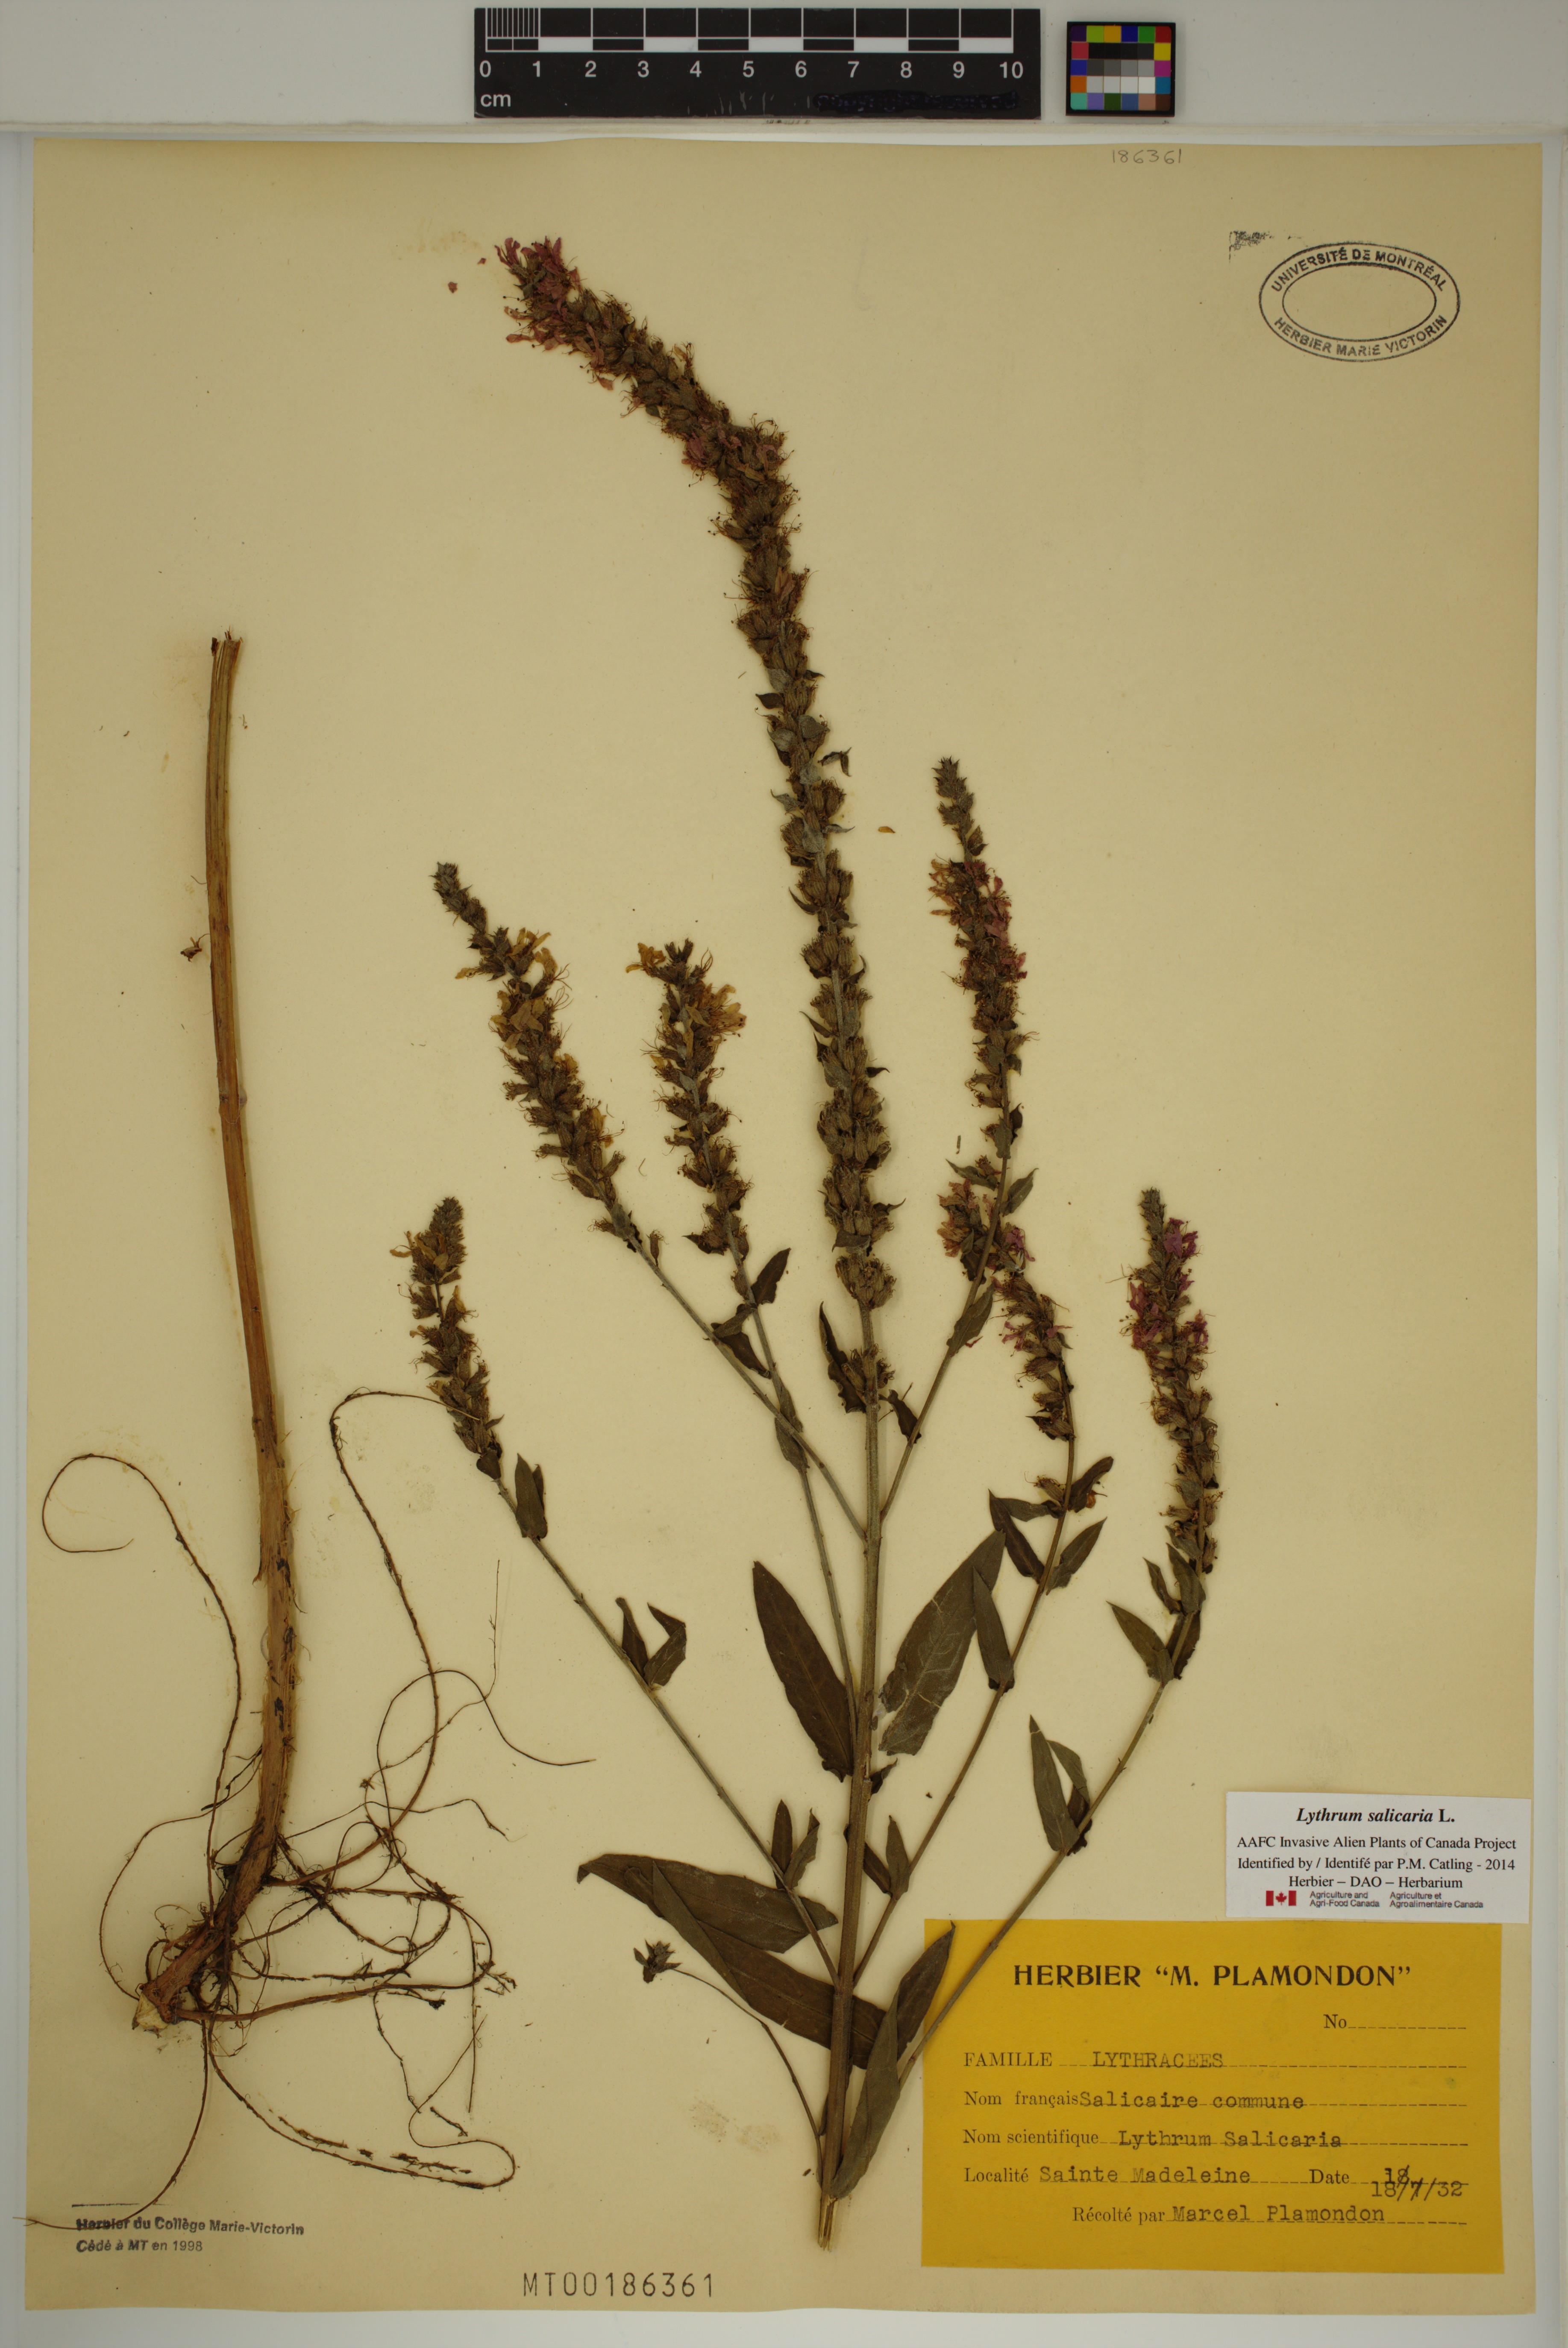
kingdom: Plantae
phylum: Tracheophyta
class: Magnoliopsida
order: Myrtales
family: Lythraceae
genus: Lythrum
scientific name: Lythrum salicaria
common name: Purple loosestrife
